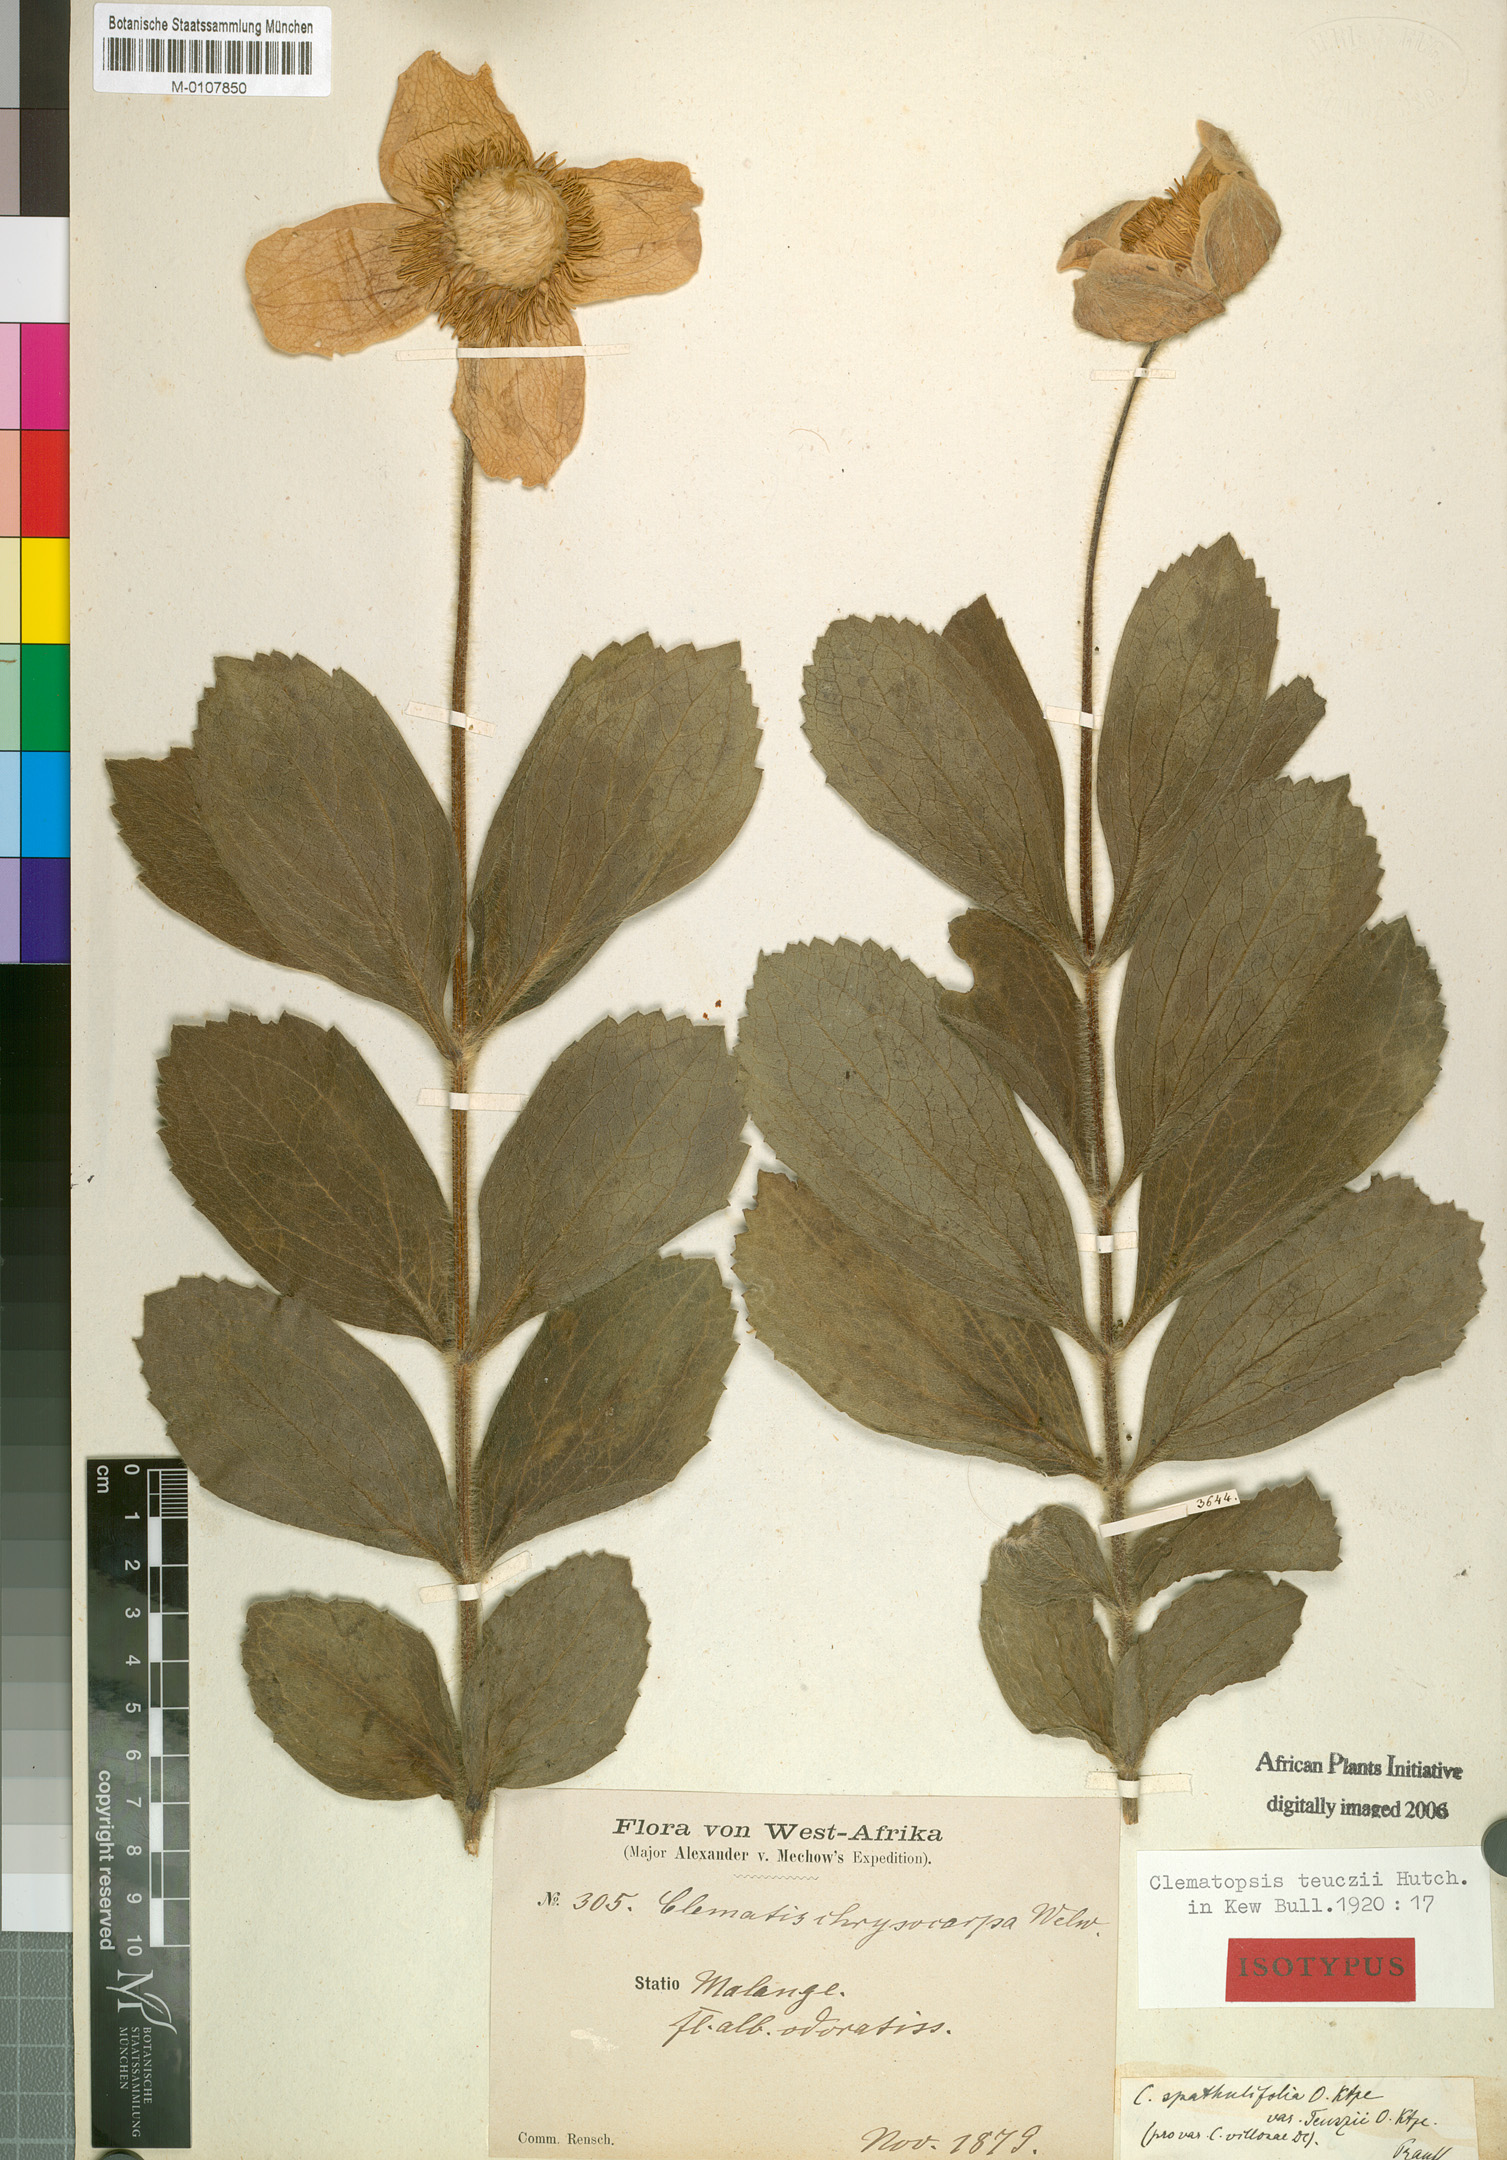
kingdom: Plantae
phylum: Tracheophyta
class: Magnoliopsida
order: Ranunculales
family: Ranunculaceae
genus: Clematis
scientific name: Clematis villosa
